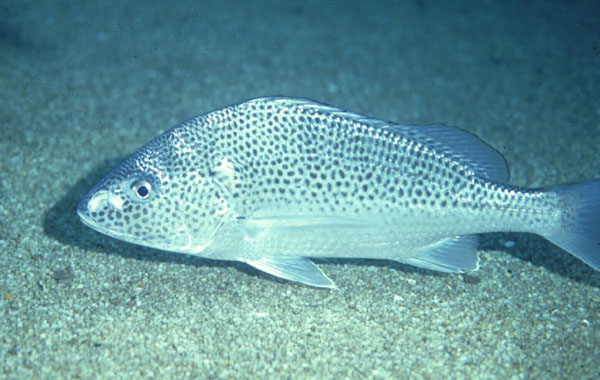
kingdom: Animalia
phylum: Chordata
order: Perciformes
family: Haemulidae
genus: Pomadasys
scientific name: Pomadasys multimaculatus
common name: Cock grunter
